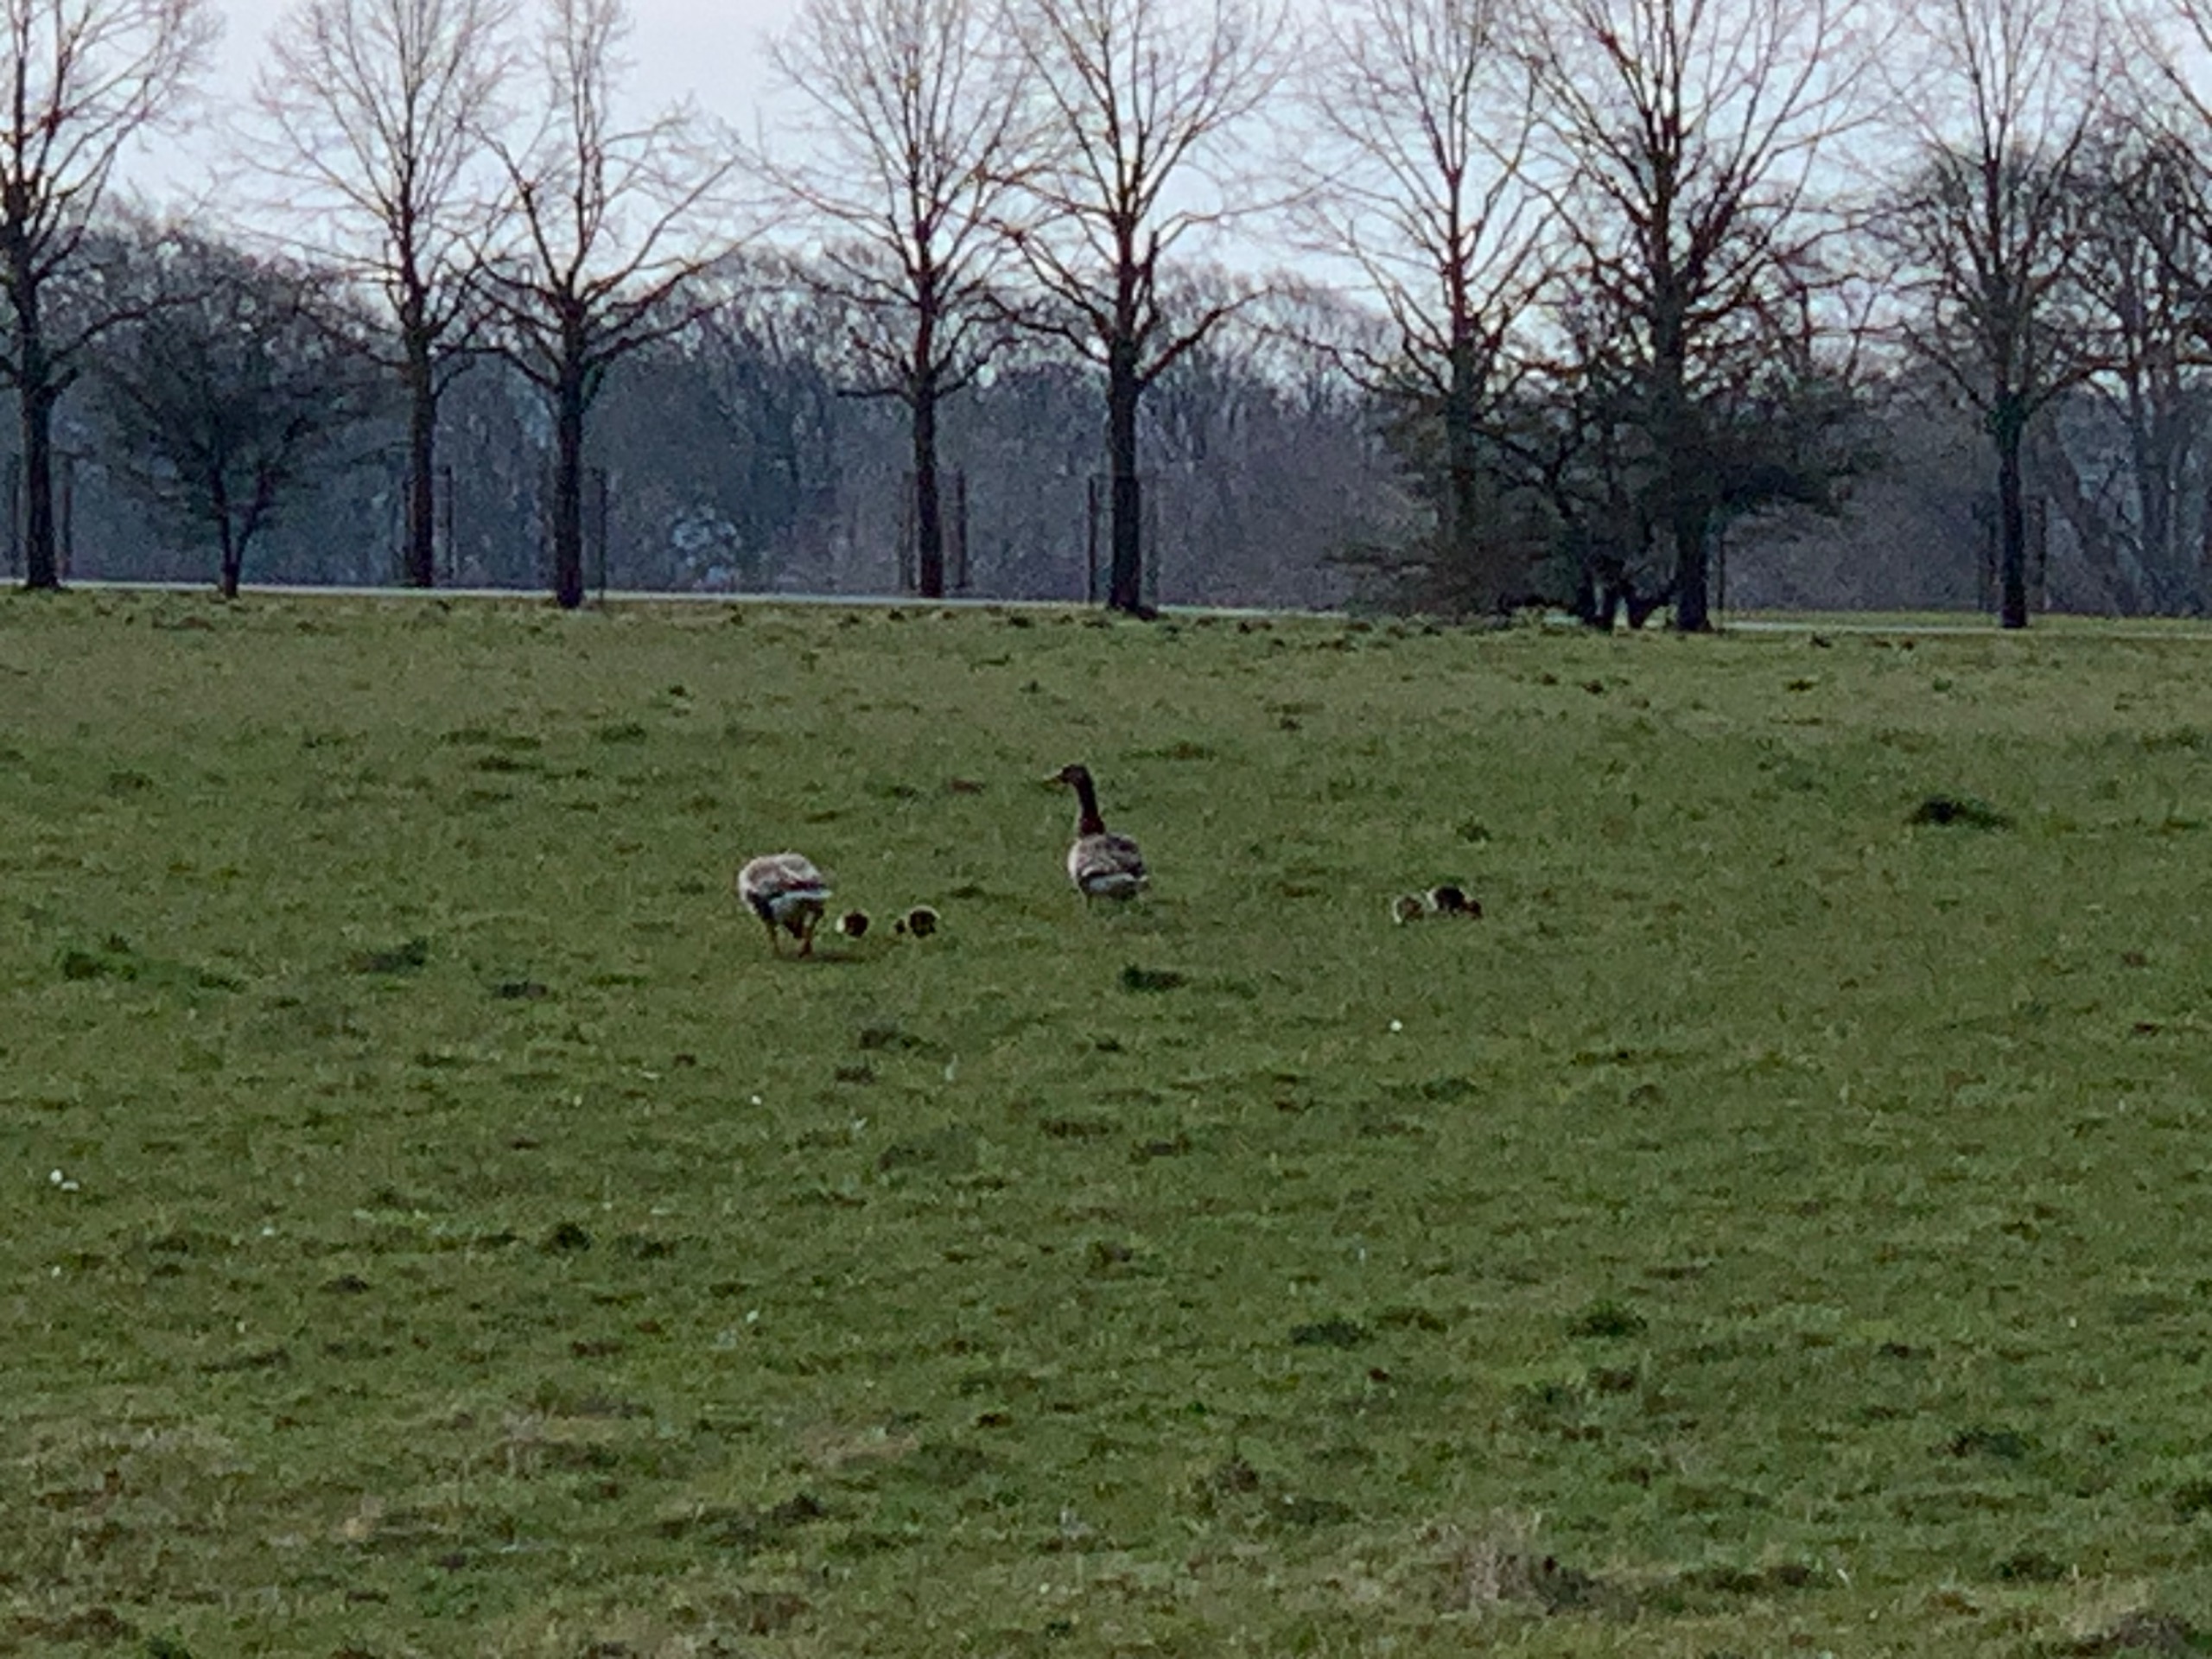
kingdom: Animalia
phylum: Chordata
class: Aves
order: Anseriformes
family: Anatidae
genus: Anser
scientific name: Anser anser
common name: Grågås
